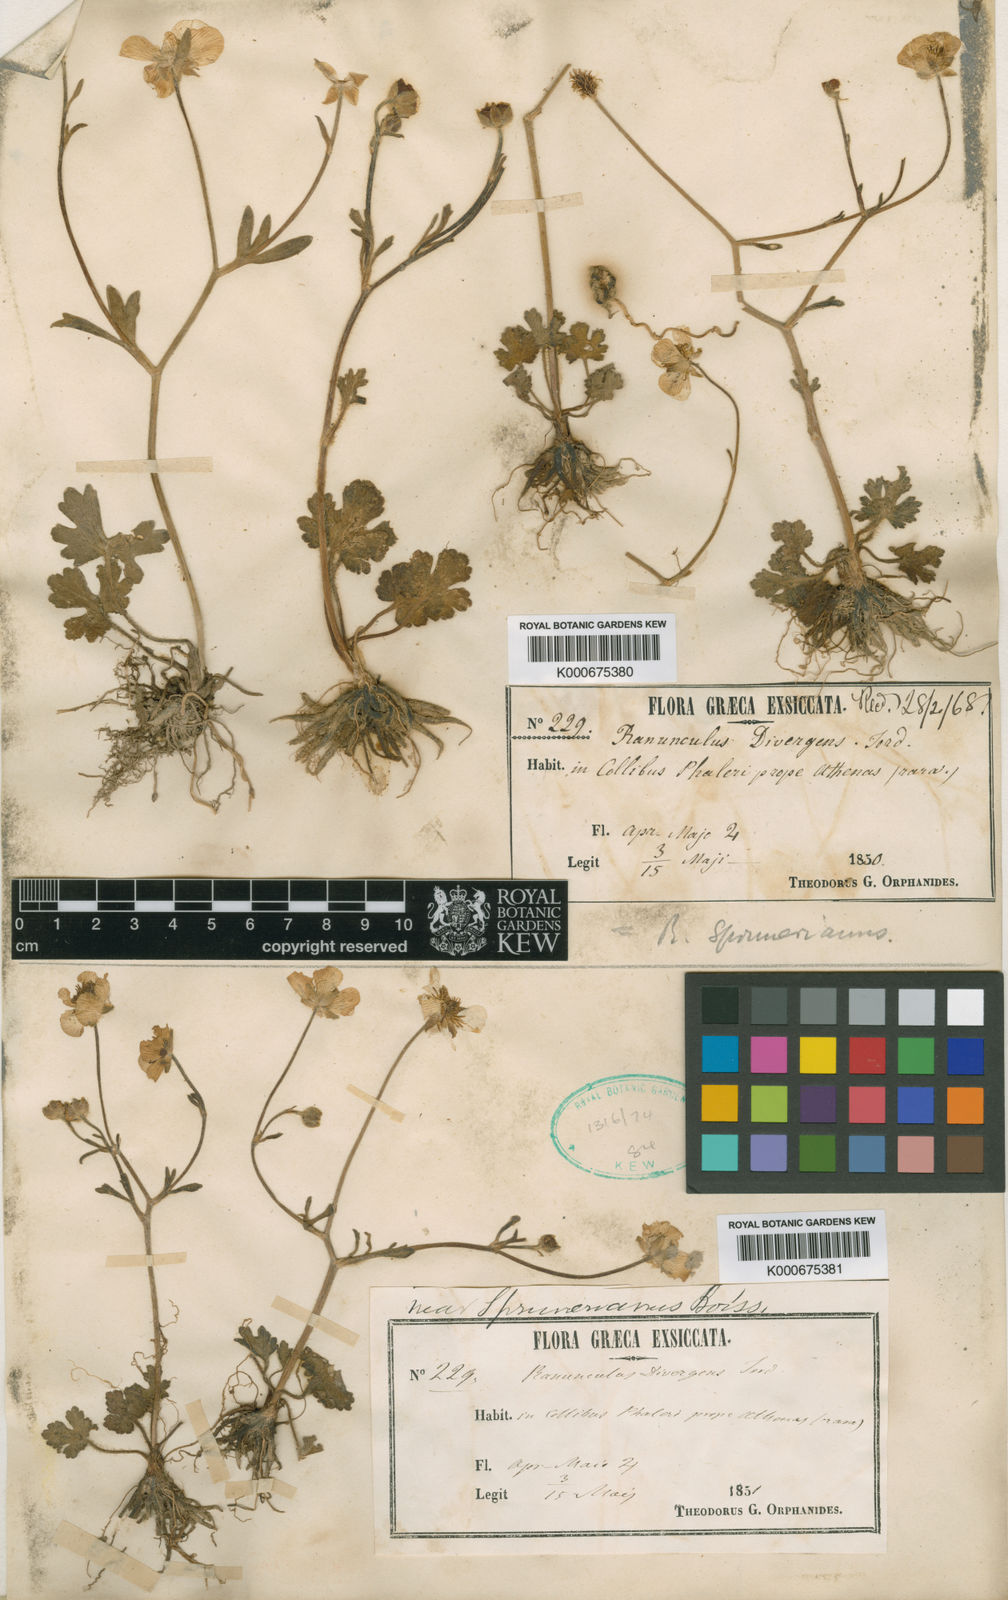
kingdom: Plantae
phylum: Tracheophyta
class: Magnoliopsida
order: Ranunculales
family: Ranunculaceae
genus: Ranunculus
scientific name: Ranunculus sprunerianus
